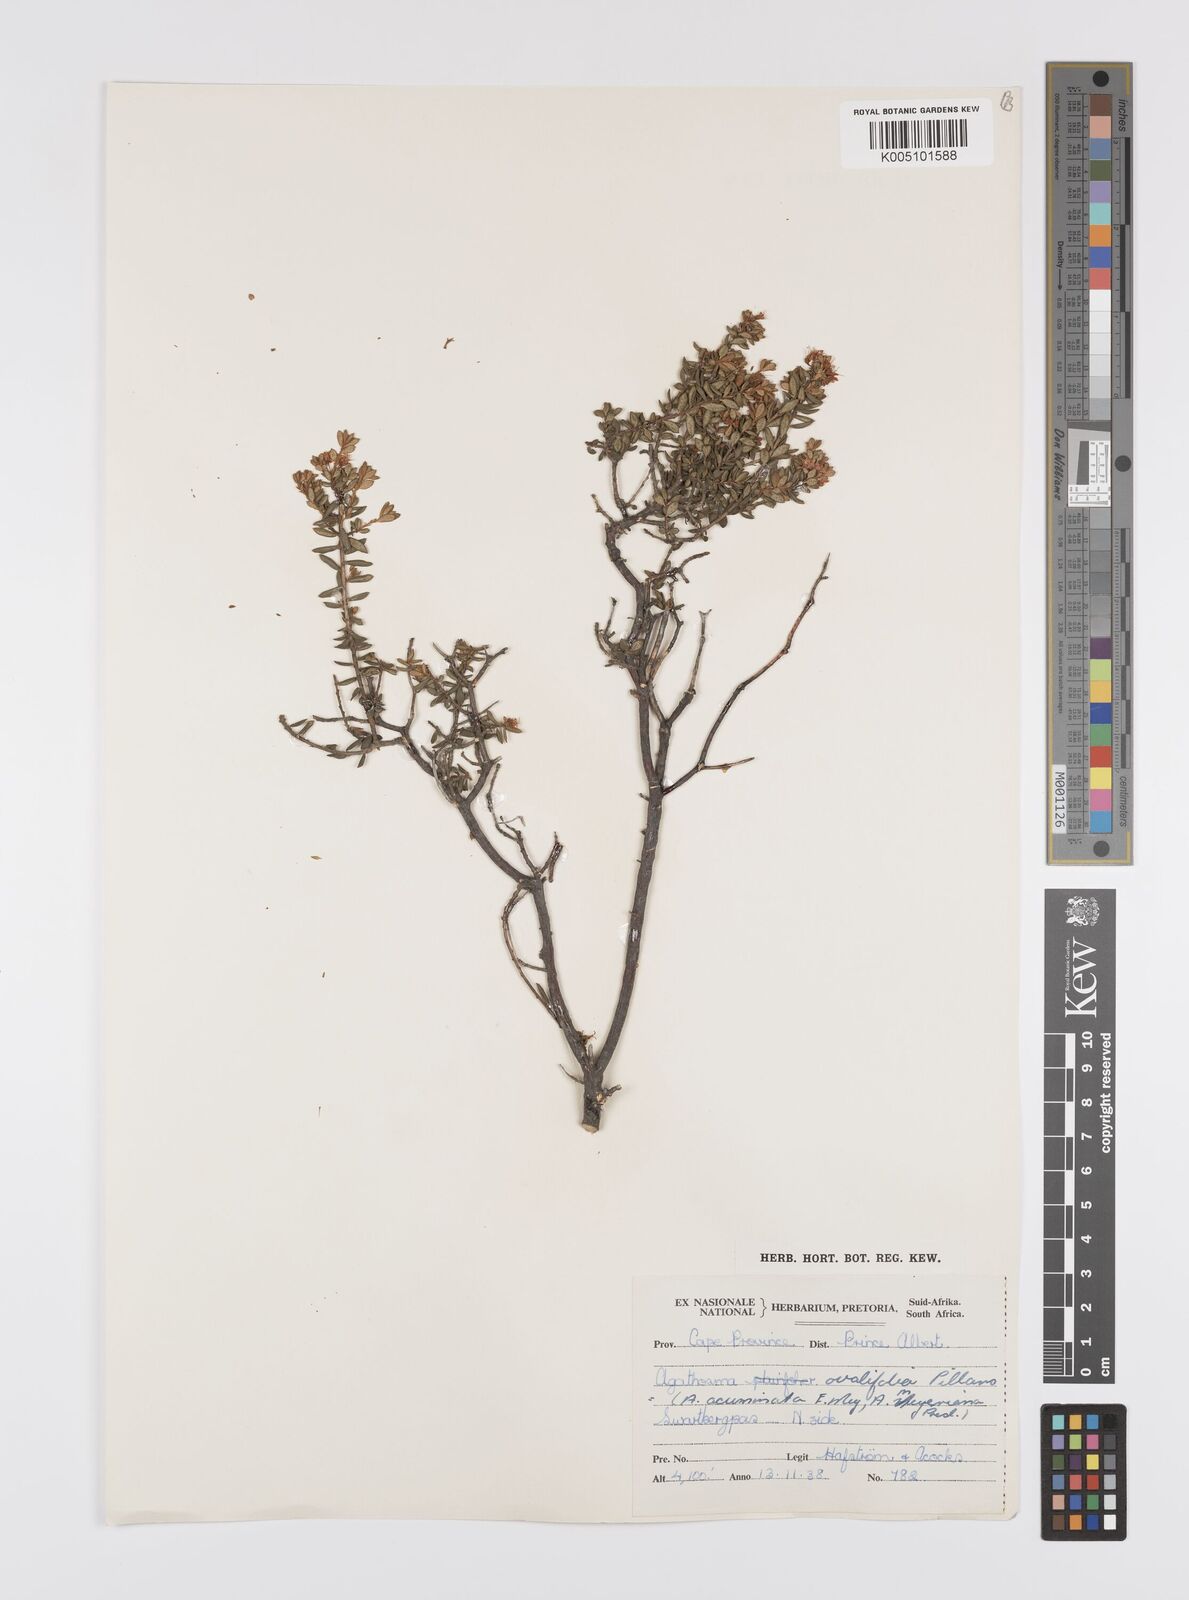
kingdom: Plantae
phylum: Tracheophyta
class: Magnoliopsida
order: Sapindales
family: Rutaceae
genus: Agathosma
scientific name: Agathosma ovalifolia
